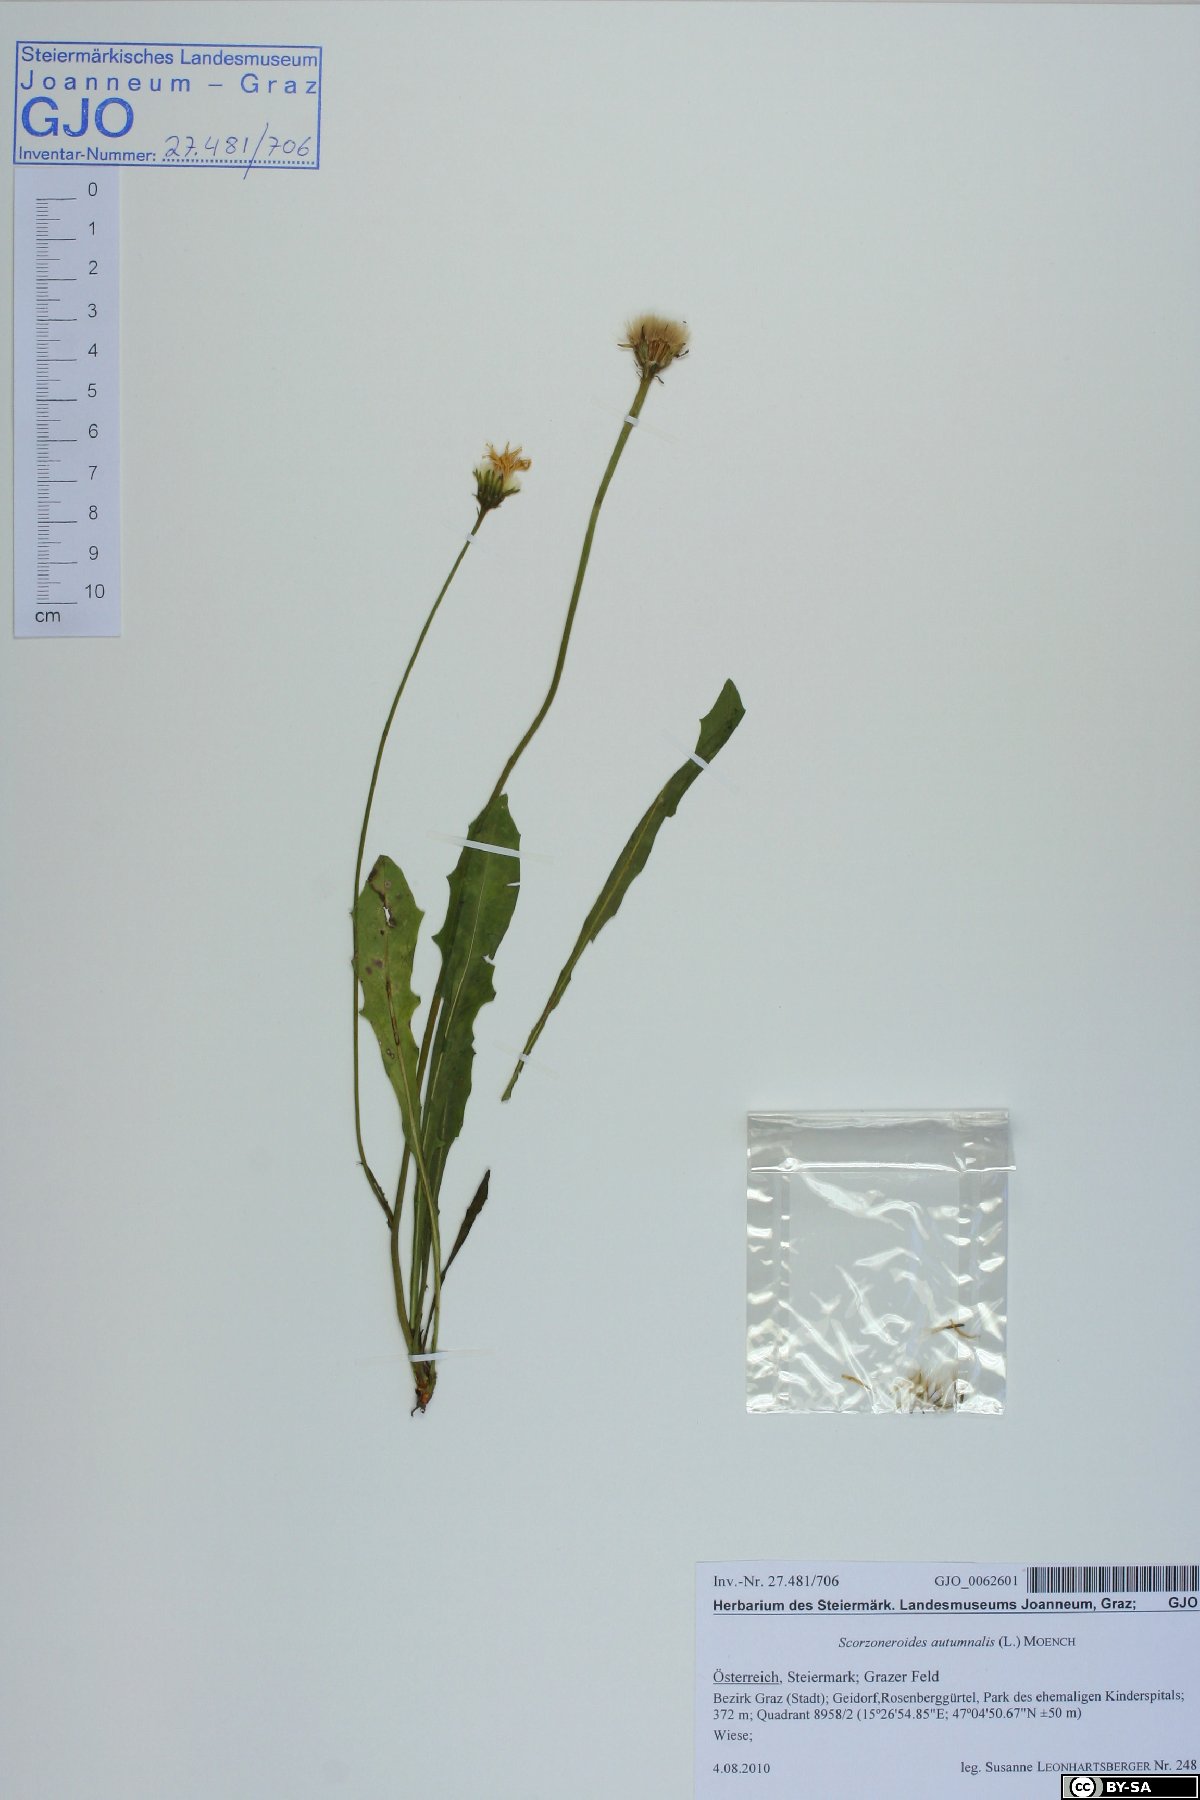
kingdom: Plantae
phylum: Tracheophyta
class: Magnoliopsida
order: Asterales
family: Asteraceae
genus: Scorzoneroides
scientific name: Scorzoneroides autumnalis
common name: Autumn hawkbit
